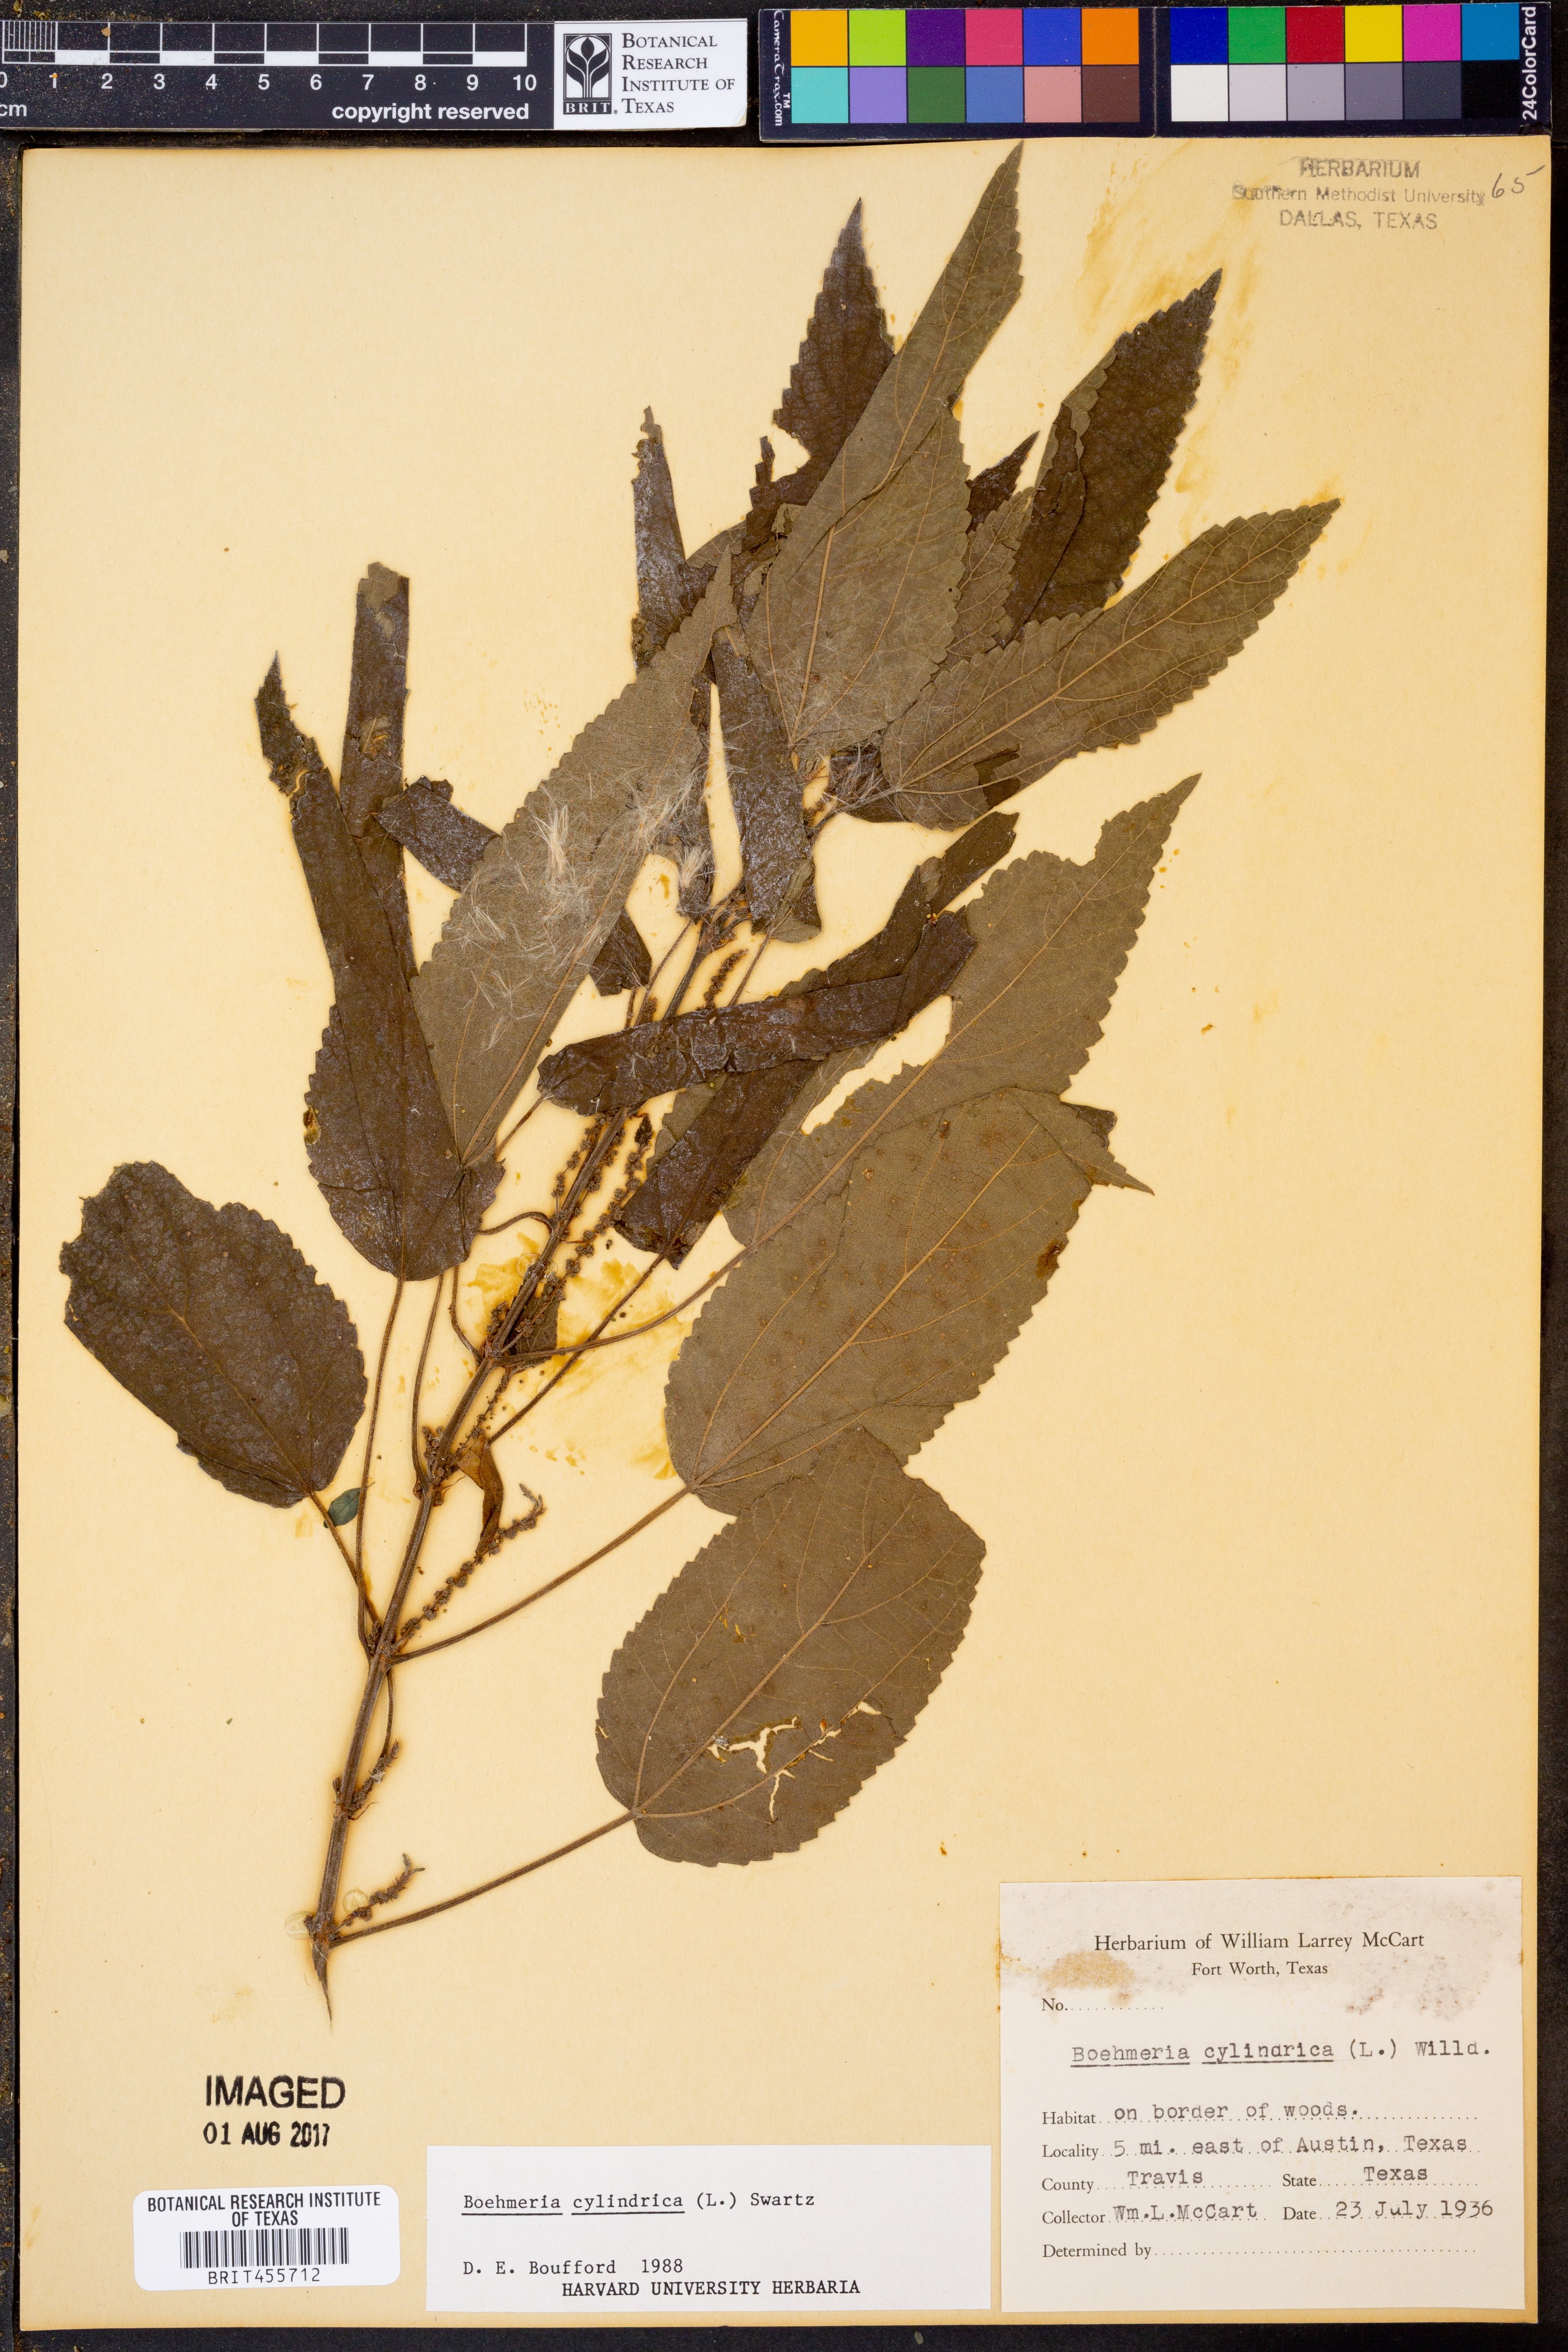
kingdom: Plantae
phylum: Tracheophyta
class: Magnoliopsida
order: Rosales
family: Urticaceae
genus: Boehmeria
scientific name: Boehmeria cylindrica
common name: Bog-hemp
